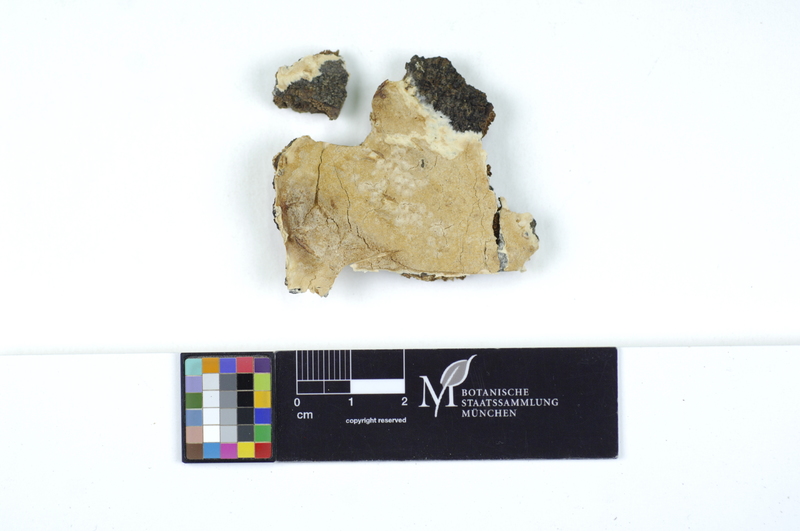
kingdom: Plantae
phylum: Tracheophyta
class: Magnoliopsida
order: Fagales
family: Fagaceae
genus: Fagus
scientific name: Fagus sylvatica
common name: Beech
